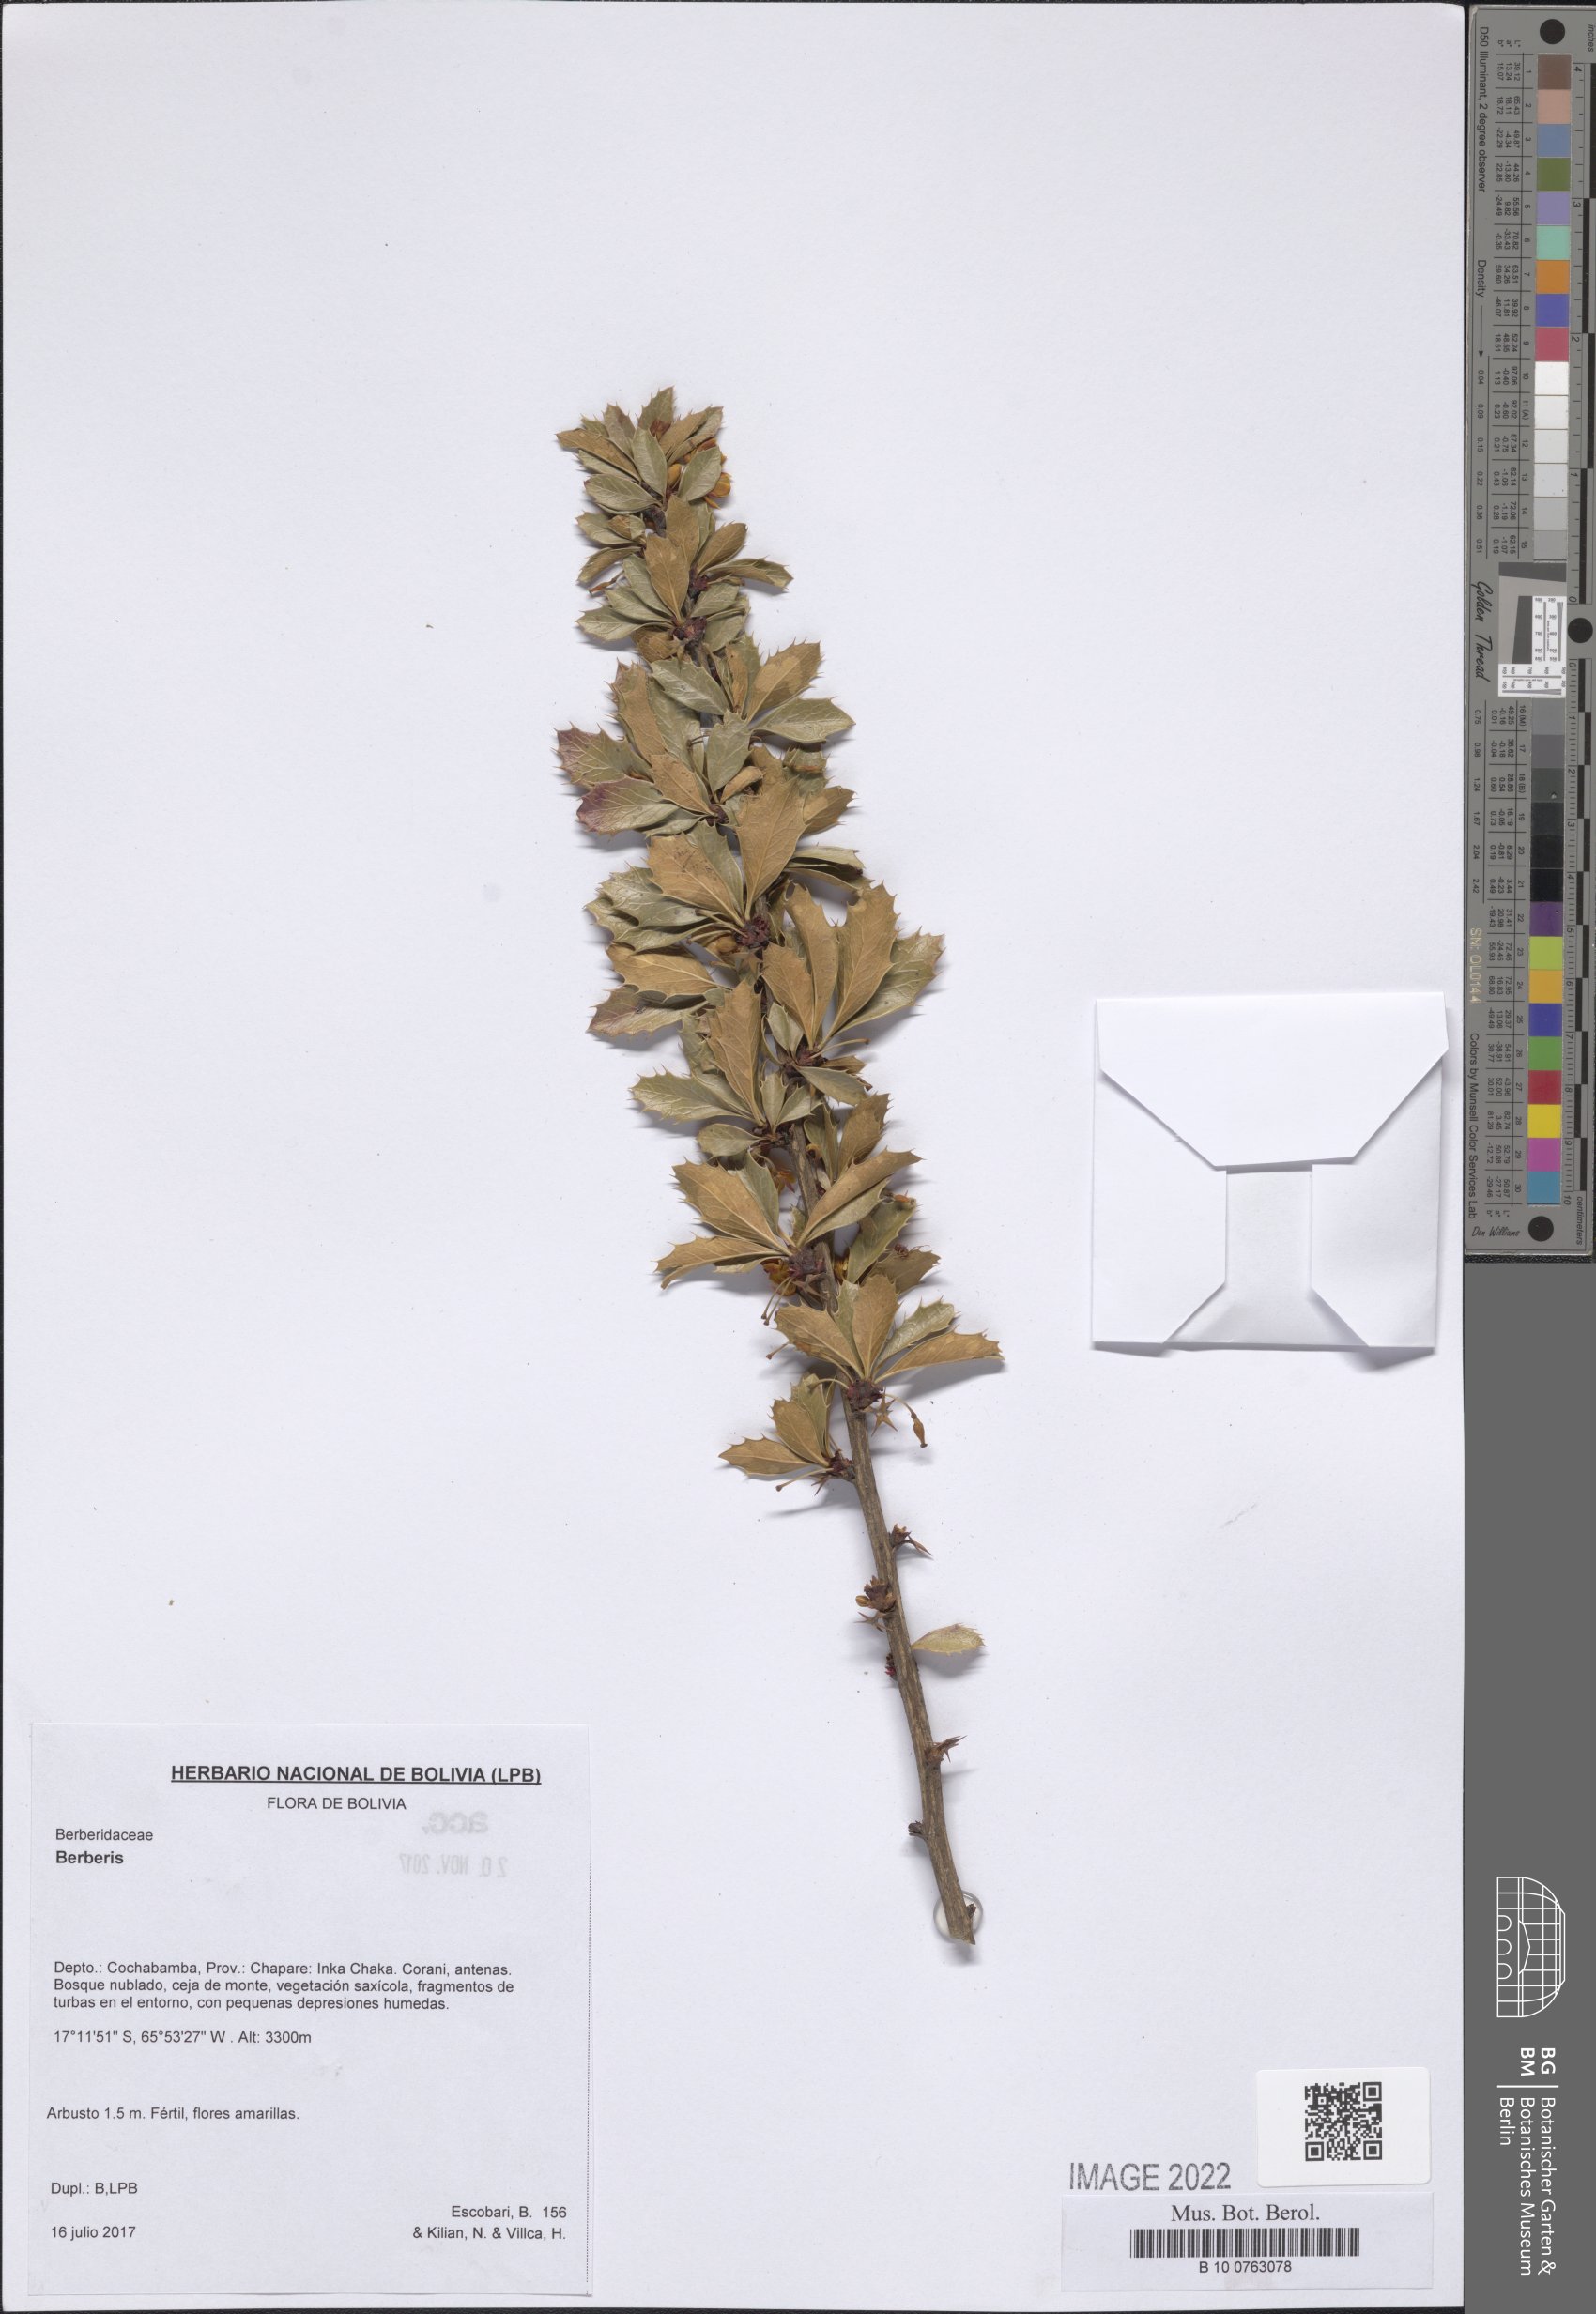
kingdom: Plantae
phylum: Tracheophyta
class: Magnoliopsida
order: Ranunculales
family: Berberidaceae
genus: Berberis
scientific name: Berberis
